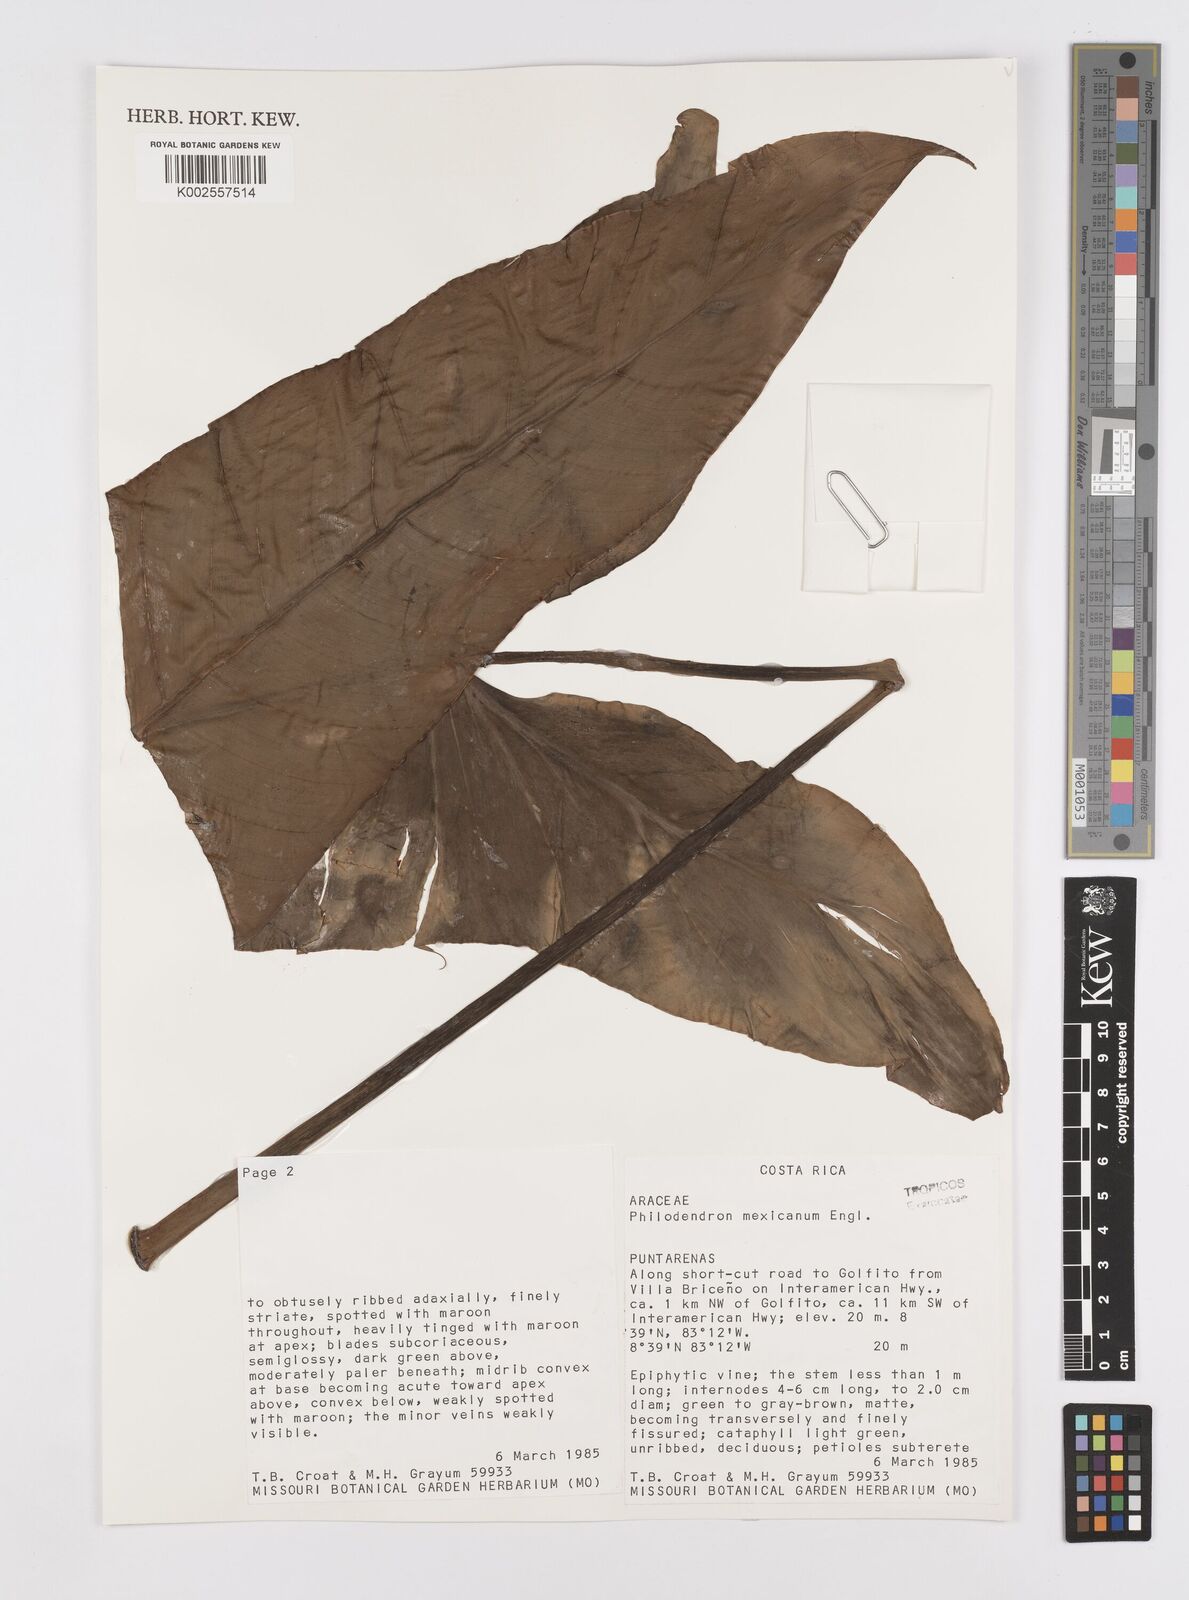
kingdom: Plantae
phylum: Tracheophyta
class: Liliopsida
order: Alismatales
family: Araceae
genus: Philodendron
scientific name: Philodendron mexicanum
